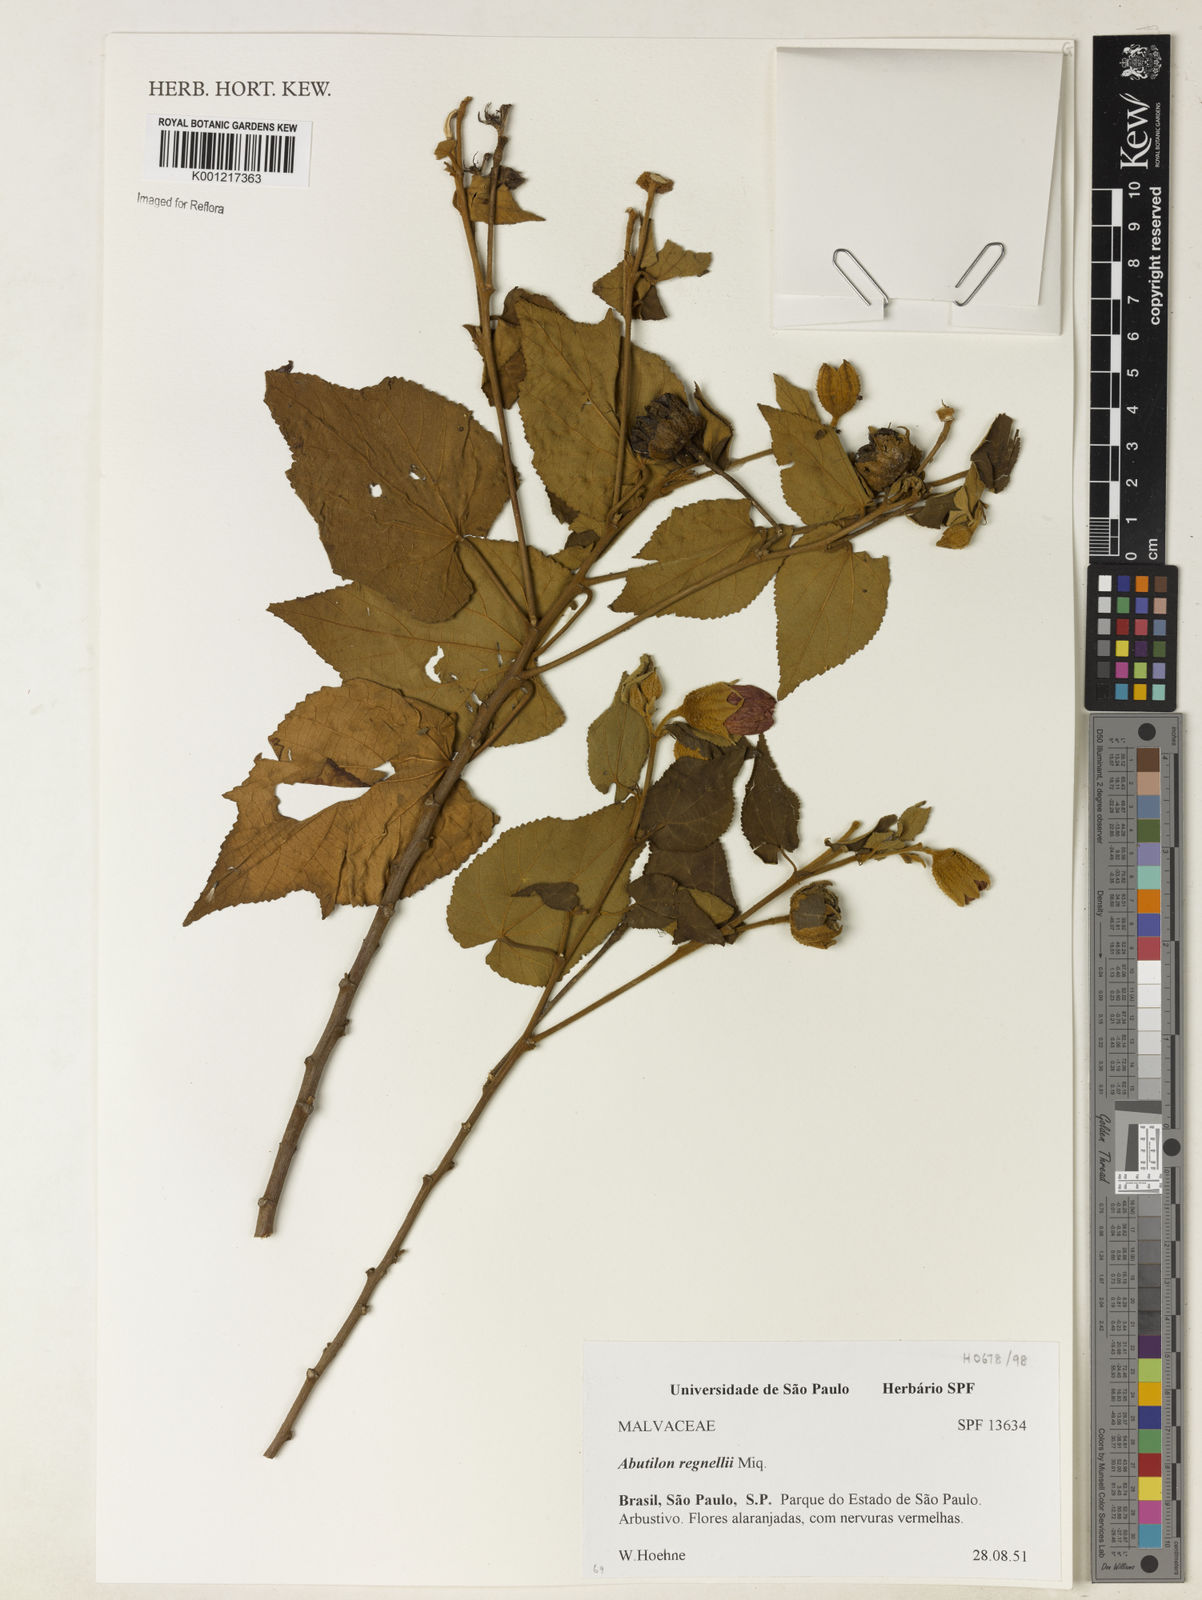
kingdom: Plantae
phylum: Tracheophyta
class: Magnoliopsida
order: Malvales
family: Malvaceae
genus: Callianthe
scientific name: Callianthe regnellii
